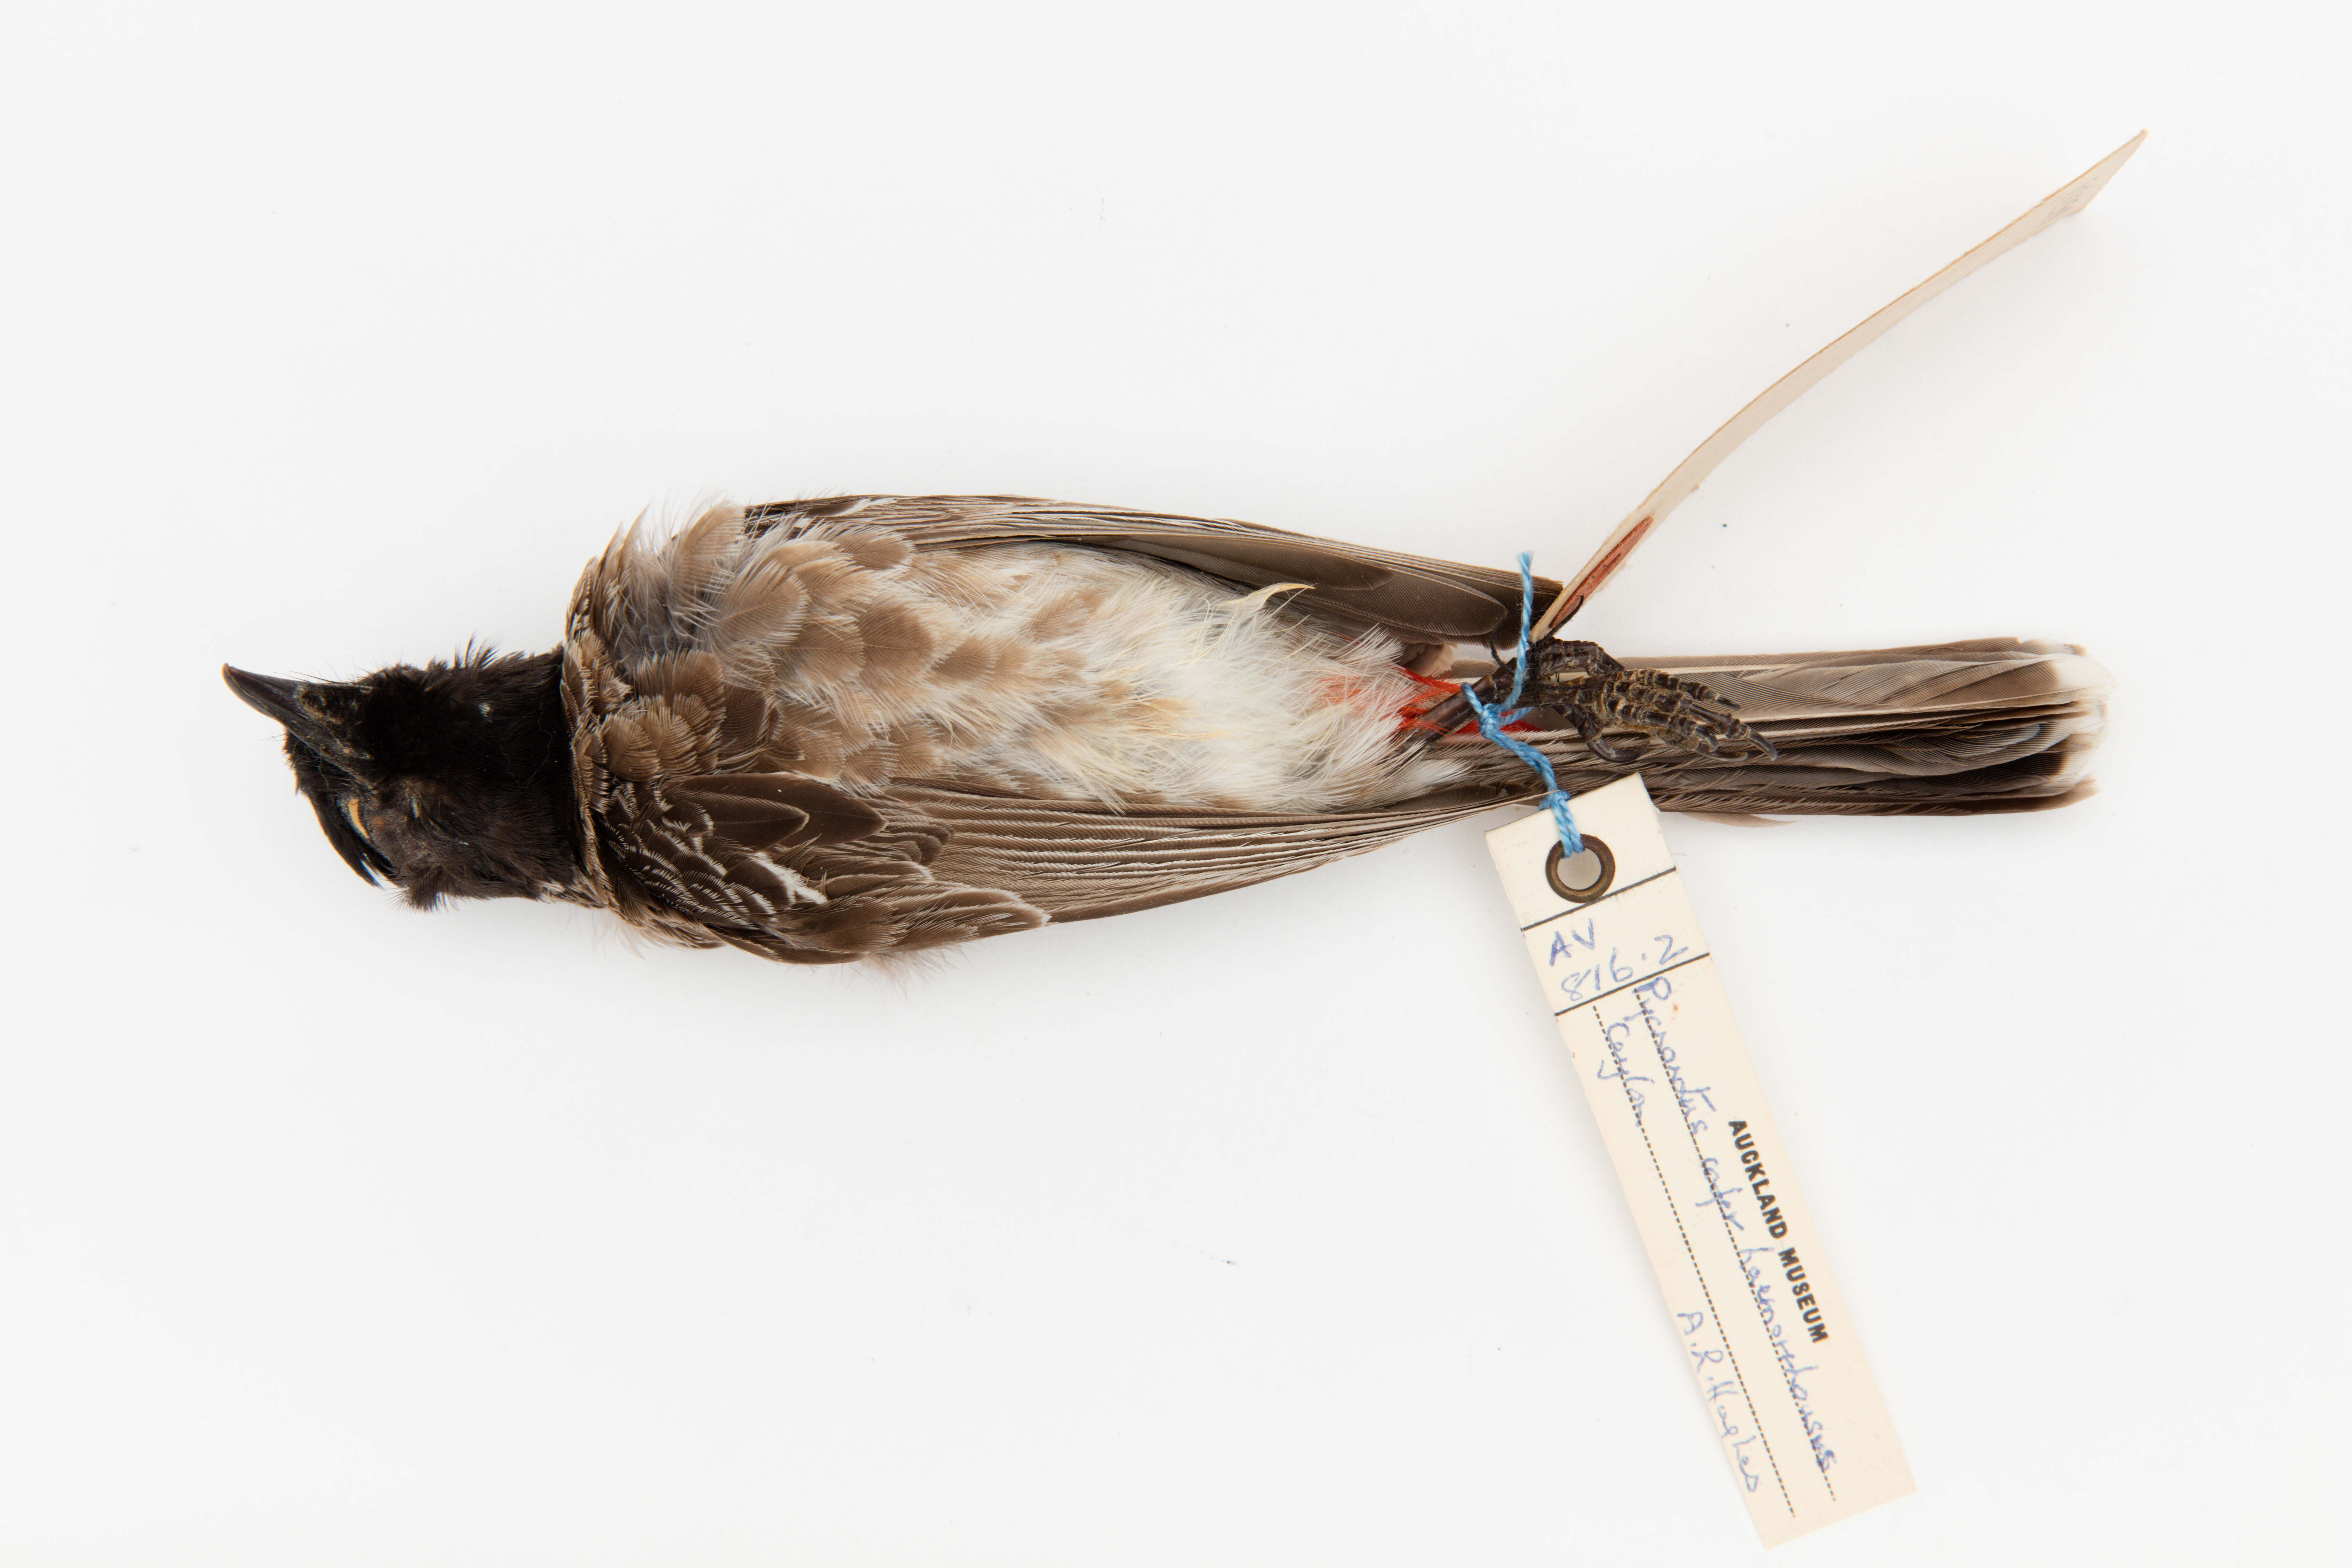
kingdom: Animalia
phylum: Chordata
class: Aves
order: Passeriformes
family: Pycnonotidae
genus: Pycnonotus
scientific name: Pycnonotus cafer
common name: Red-vented bulbul
